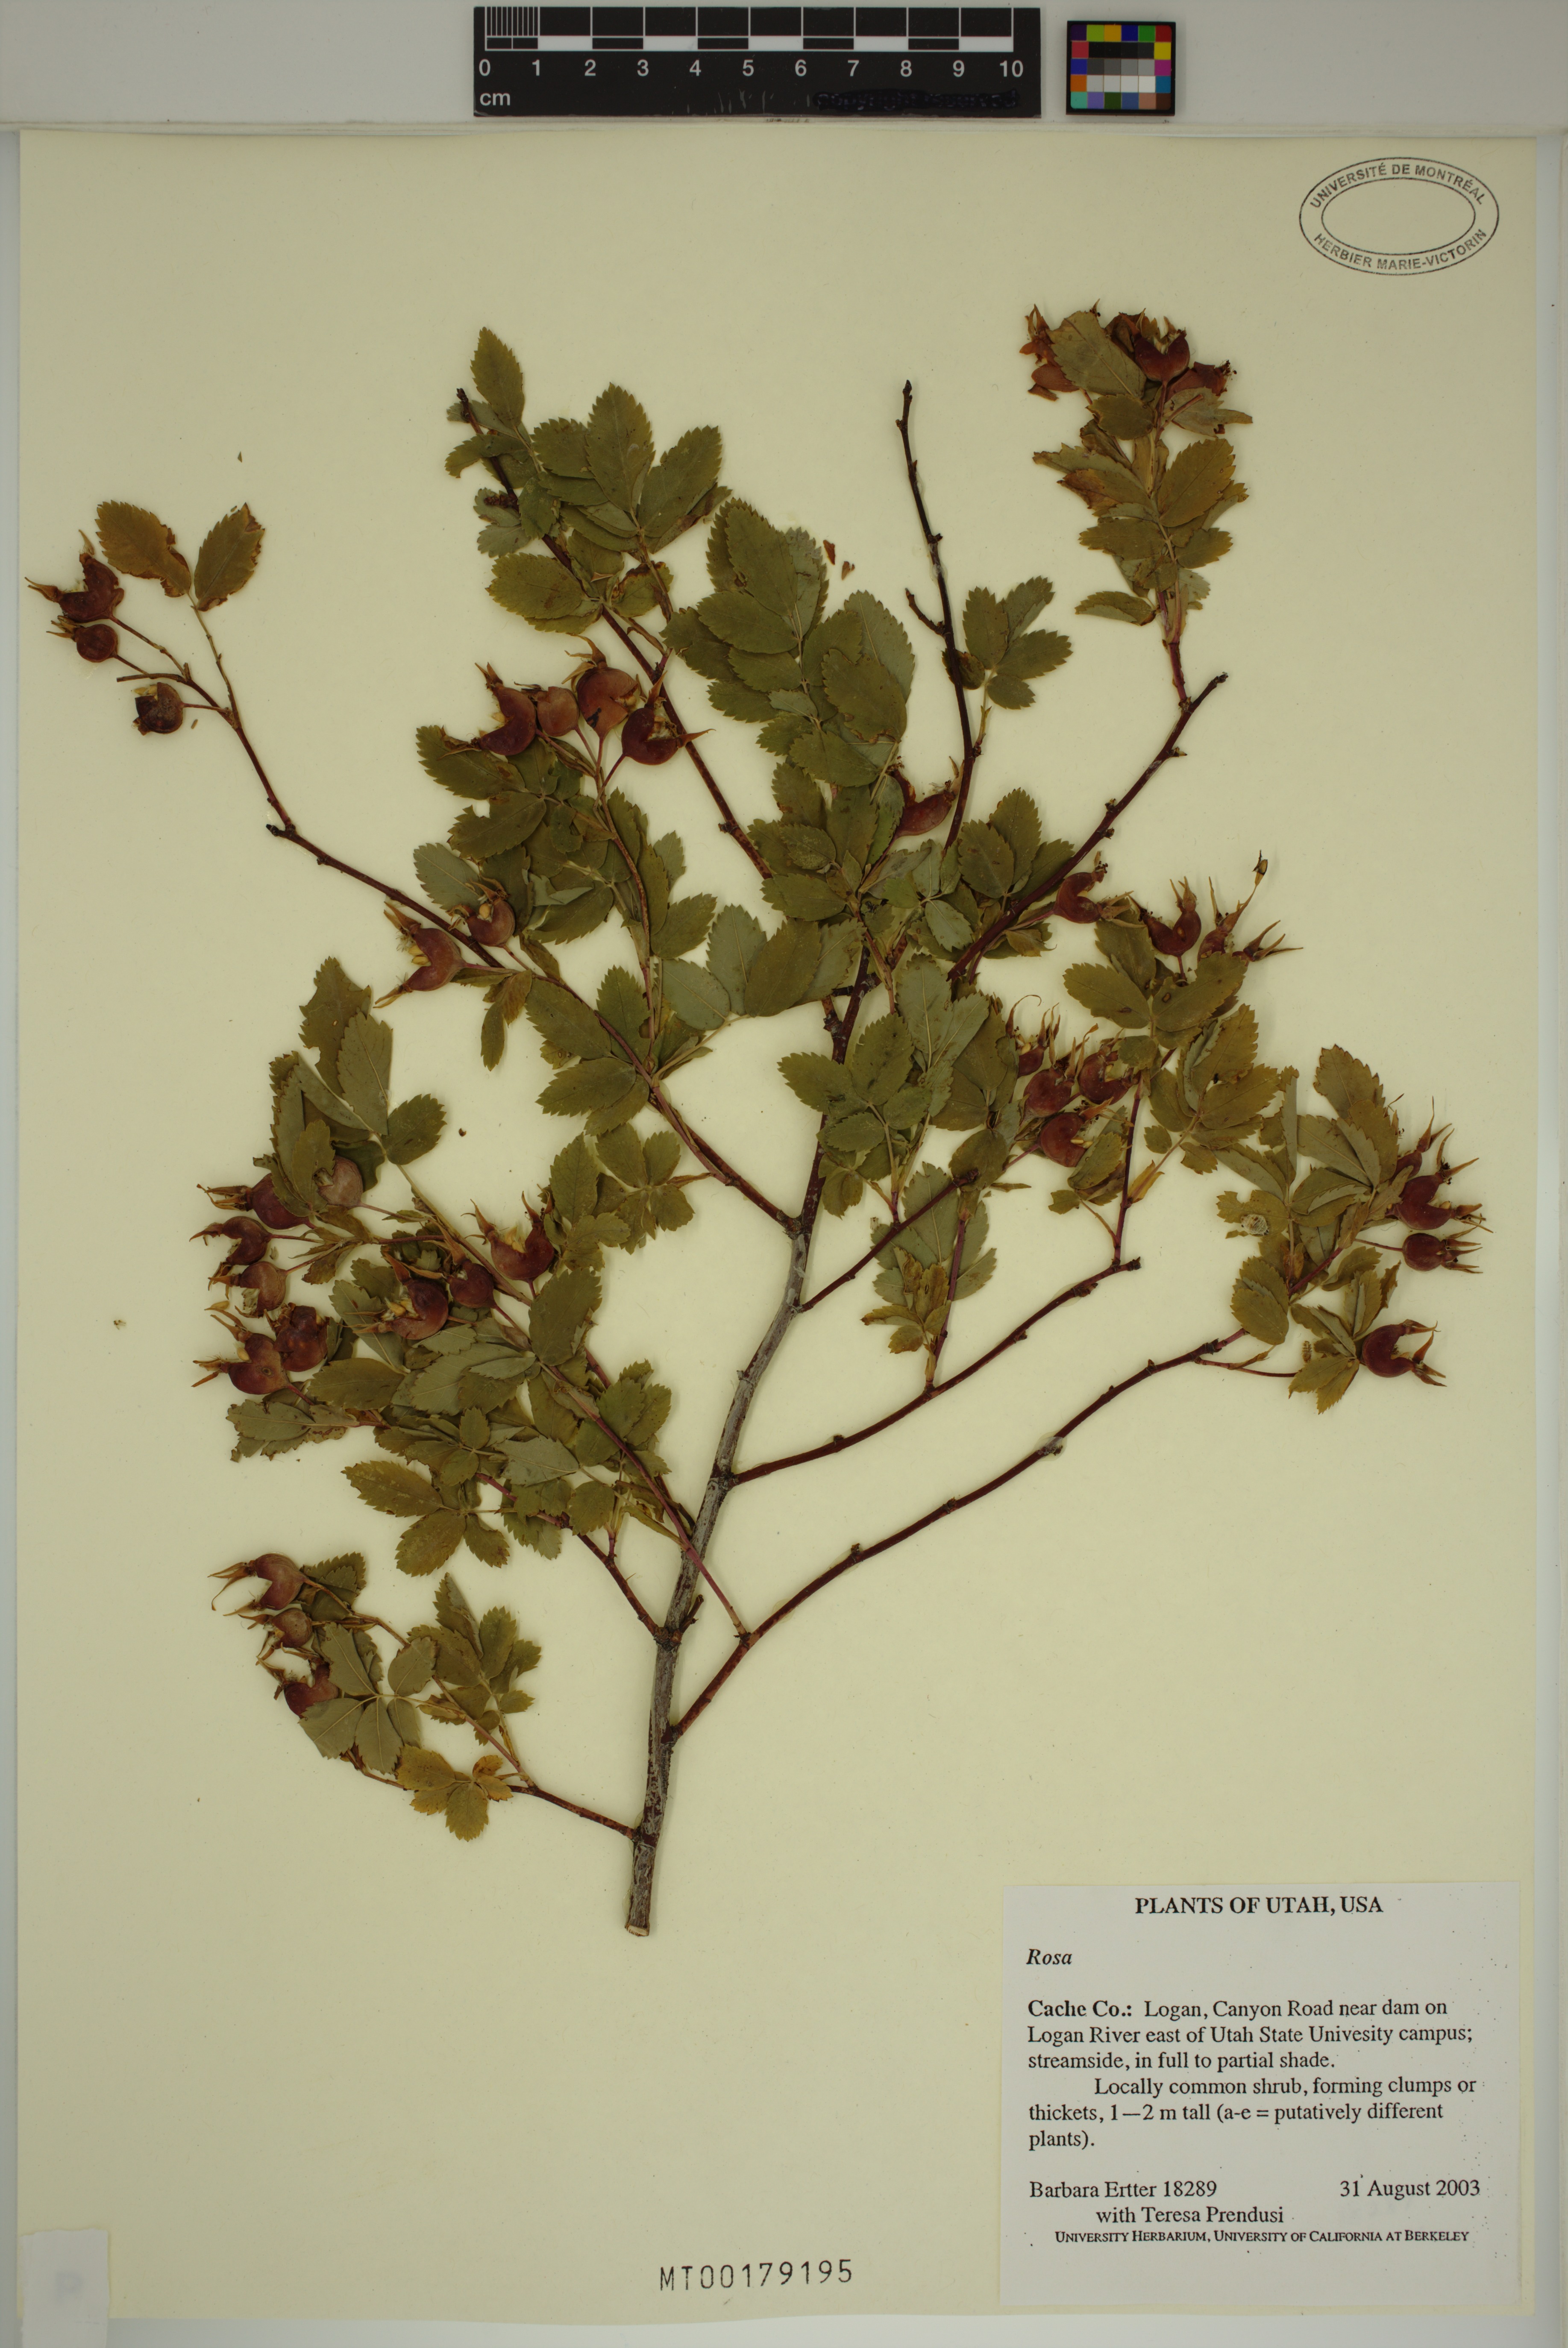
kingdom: Plantae
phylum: Tracheophyta
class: Magnoliopsida
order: Rosales
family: Rosaceae
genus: Rosa
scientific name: Rosa
